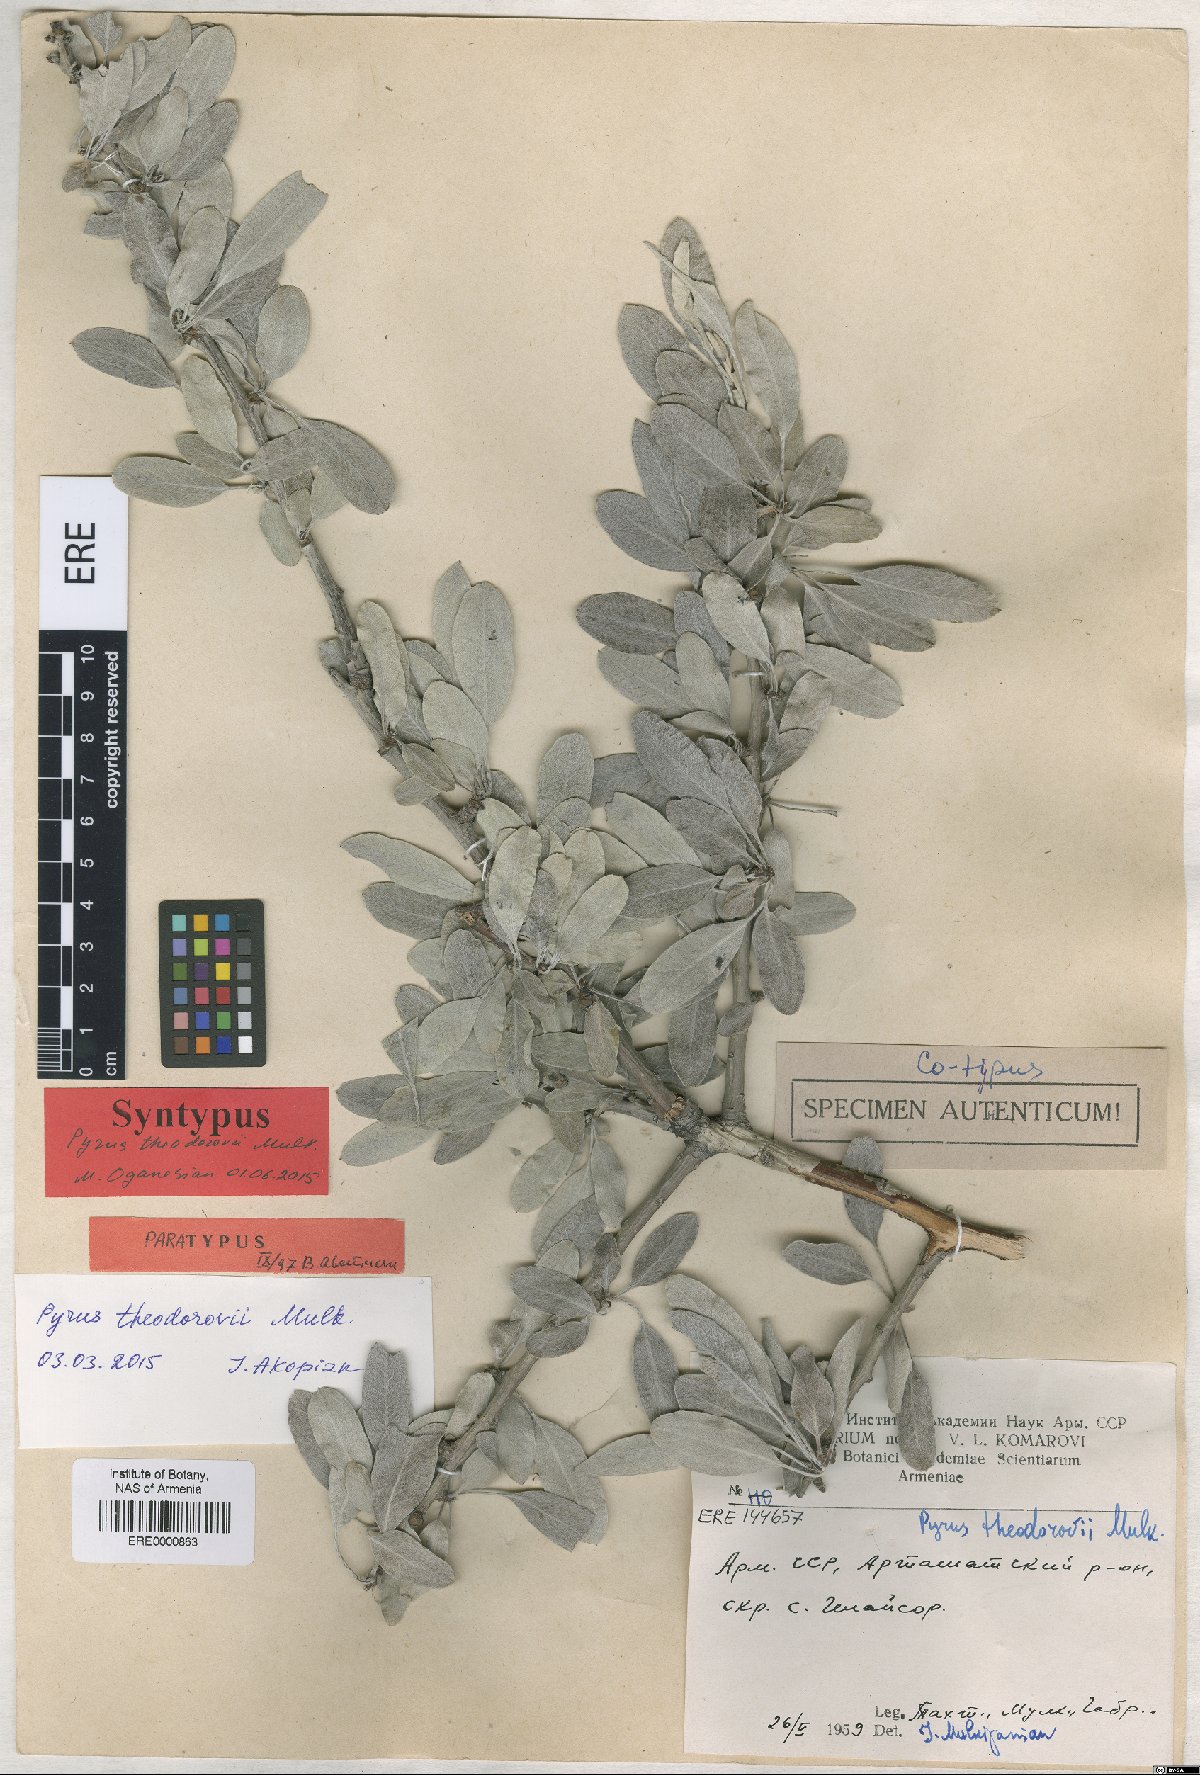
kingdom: Plantae
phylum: Tracheophyta
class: Magnoliopsida
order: Rosales
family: Rosaceae
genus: Pyrus
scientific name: Pyrus theodorovii
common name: Teodorov's pear
